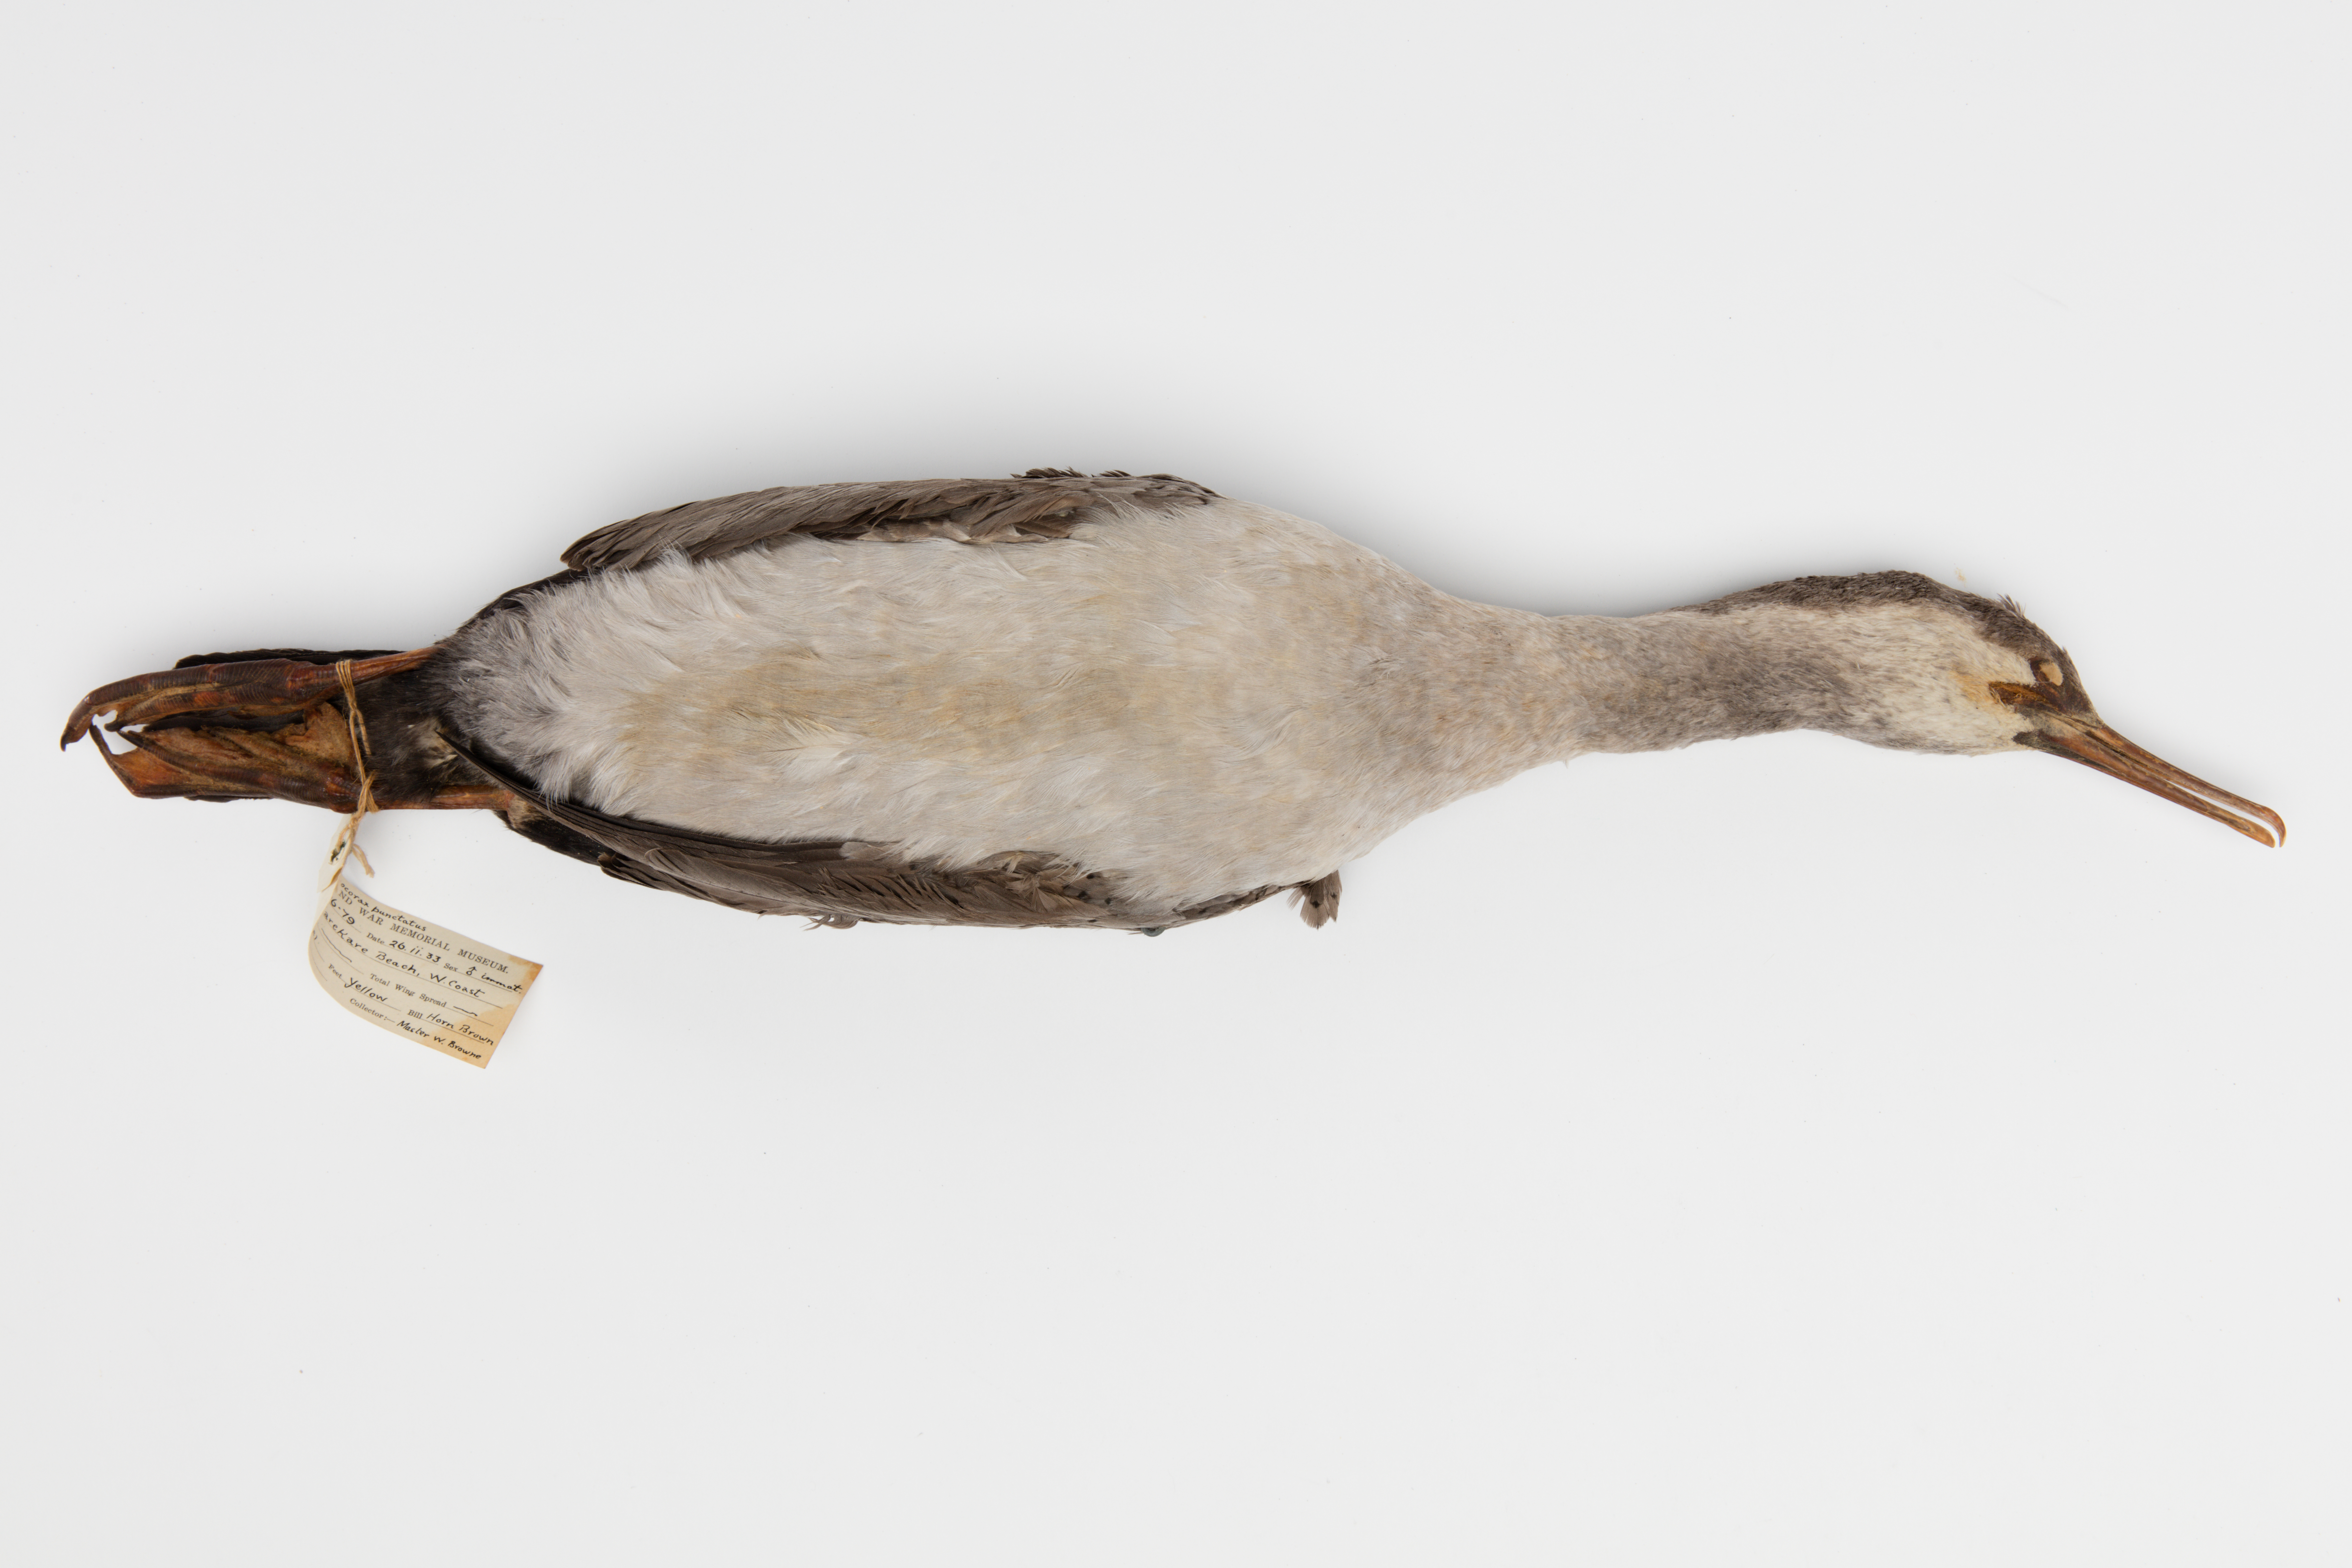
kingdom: Animalia
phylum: Chordata
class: Aves
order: Suliformes
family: Phalacrocoracidae
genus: Phalacrocorax
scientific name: Phalacrocorax punctatus
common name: Spotted shag
